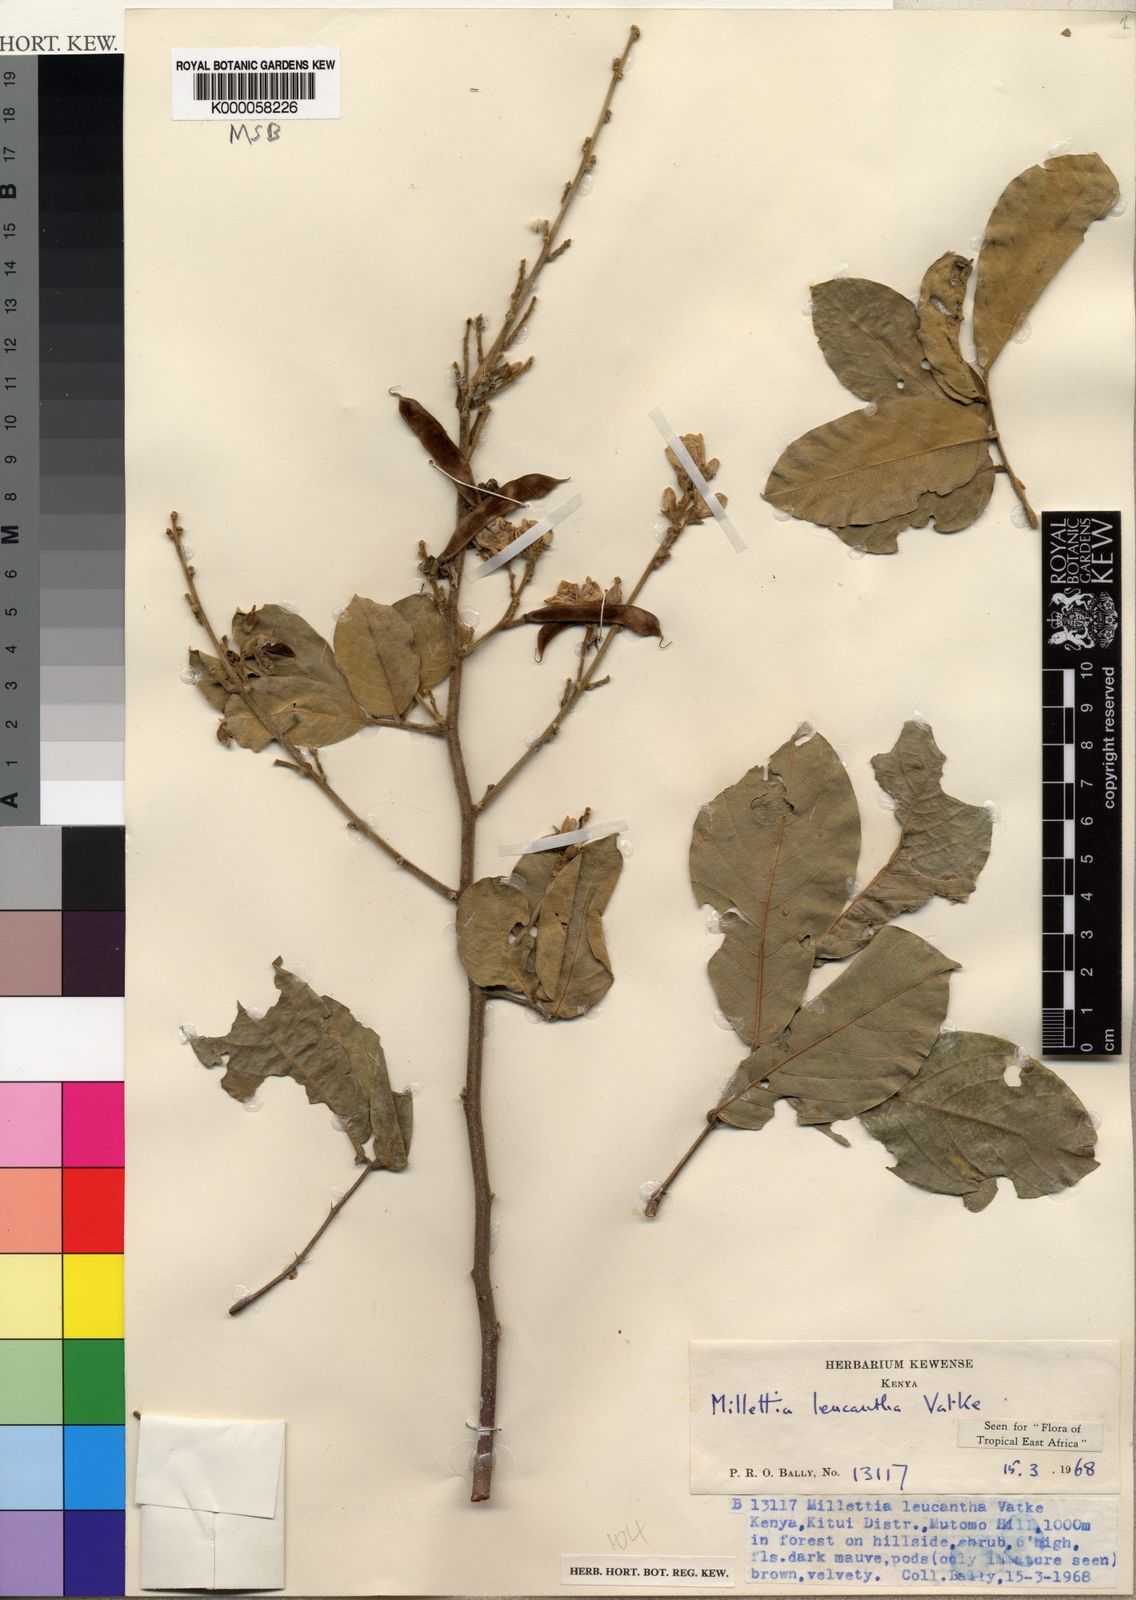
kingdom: Plantae
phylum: Tracheophyta
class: Magnoliopsida
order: Fabales
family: Fabaceae
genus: Millettia
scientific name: Millettia vatkei
